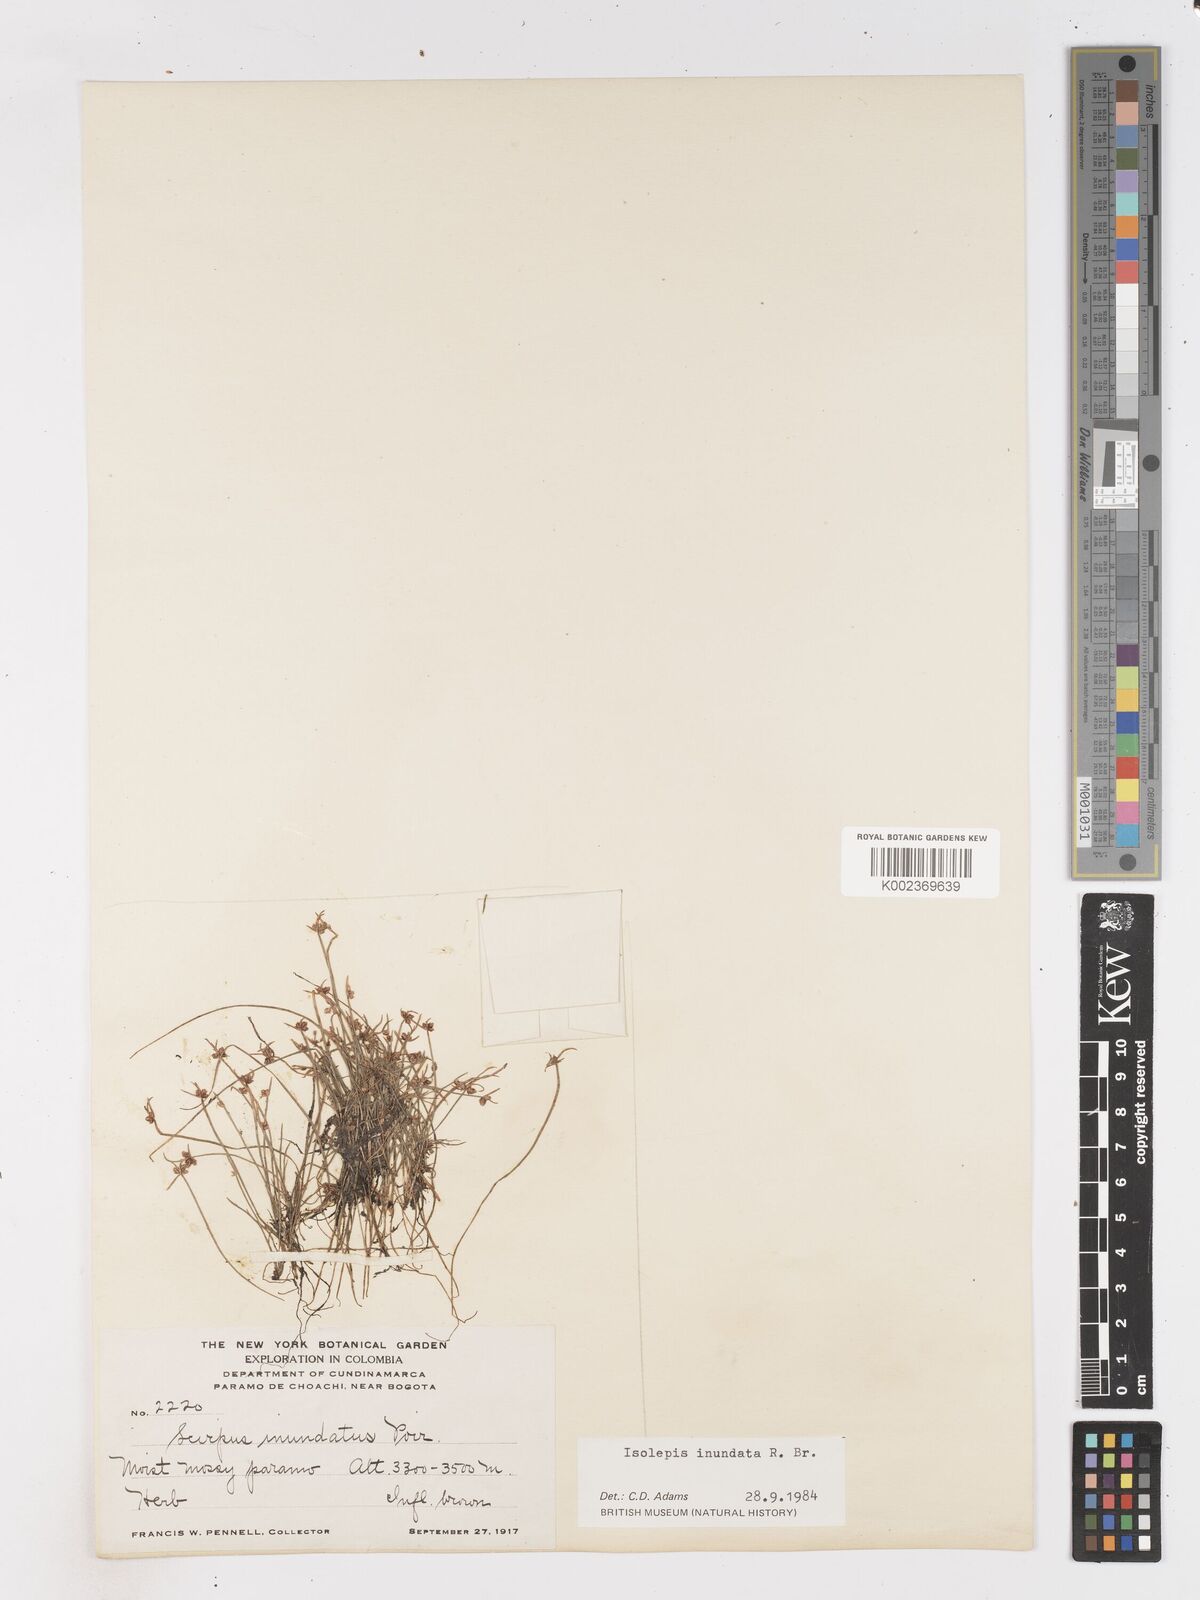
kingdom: Plantae
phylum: Tracheophyta
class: Liliopsida
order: Poales
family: Cyperaceae
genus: Isolepis
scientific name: Isolepis inundata
